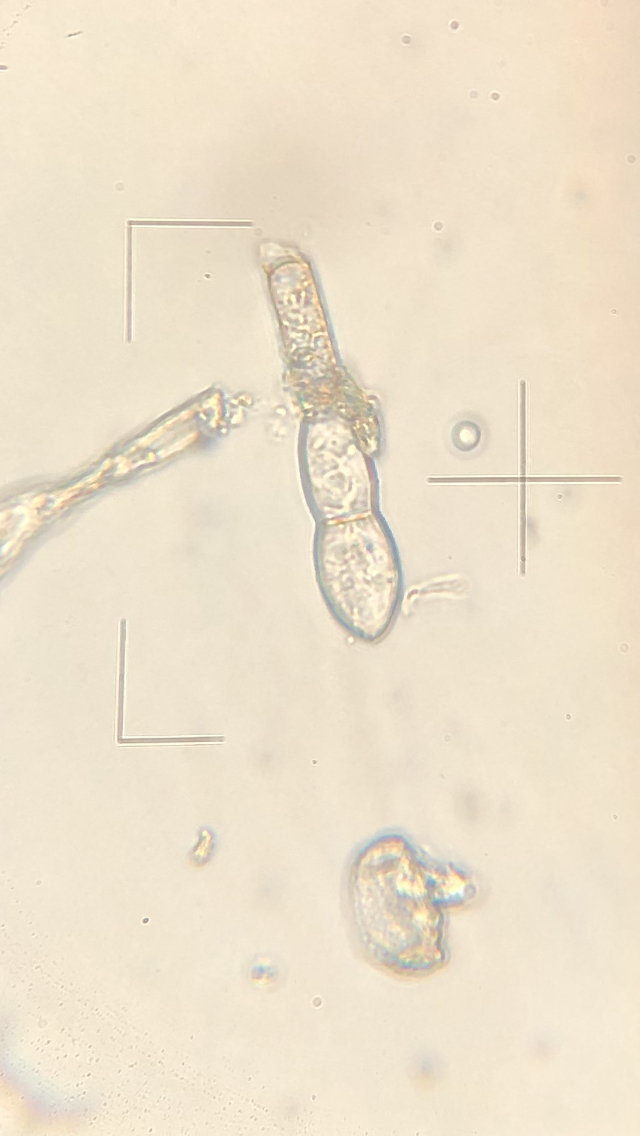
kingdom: Fungi
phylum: Ascomycota
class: Leotiomycetes
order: Helotiales
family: Erysiphaceae
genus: Podosphaera
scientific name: Podosphaera aphanis
